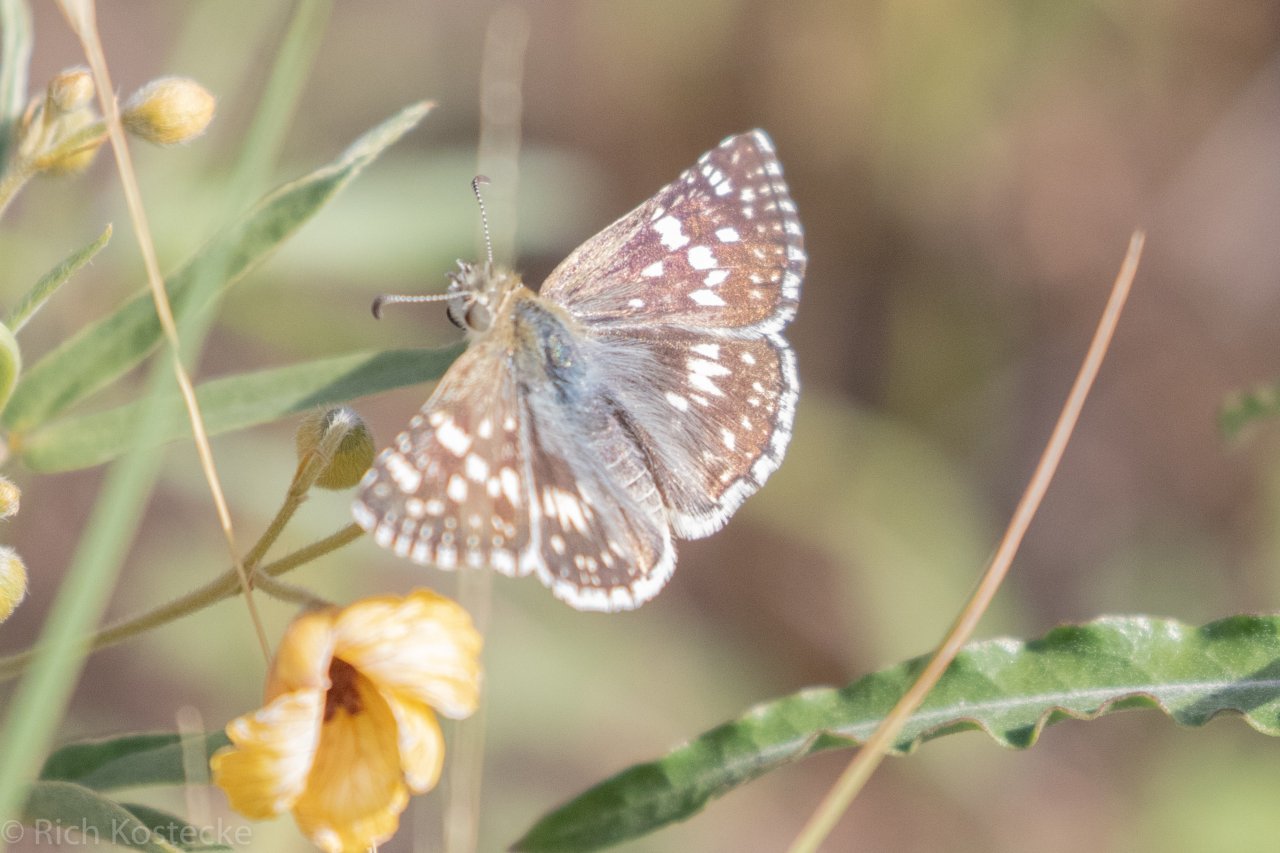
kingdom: Animalia
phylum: Arthropoda
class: Insecta
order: Lepidoptera
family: Hesperiidae
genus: Pyrgus
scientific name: Pyrgus
